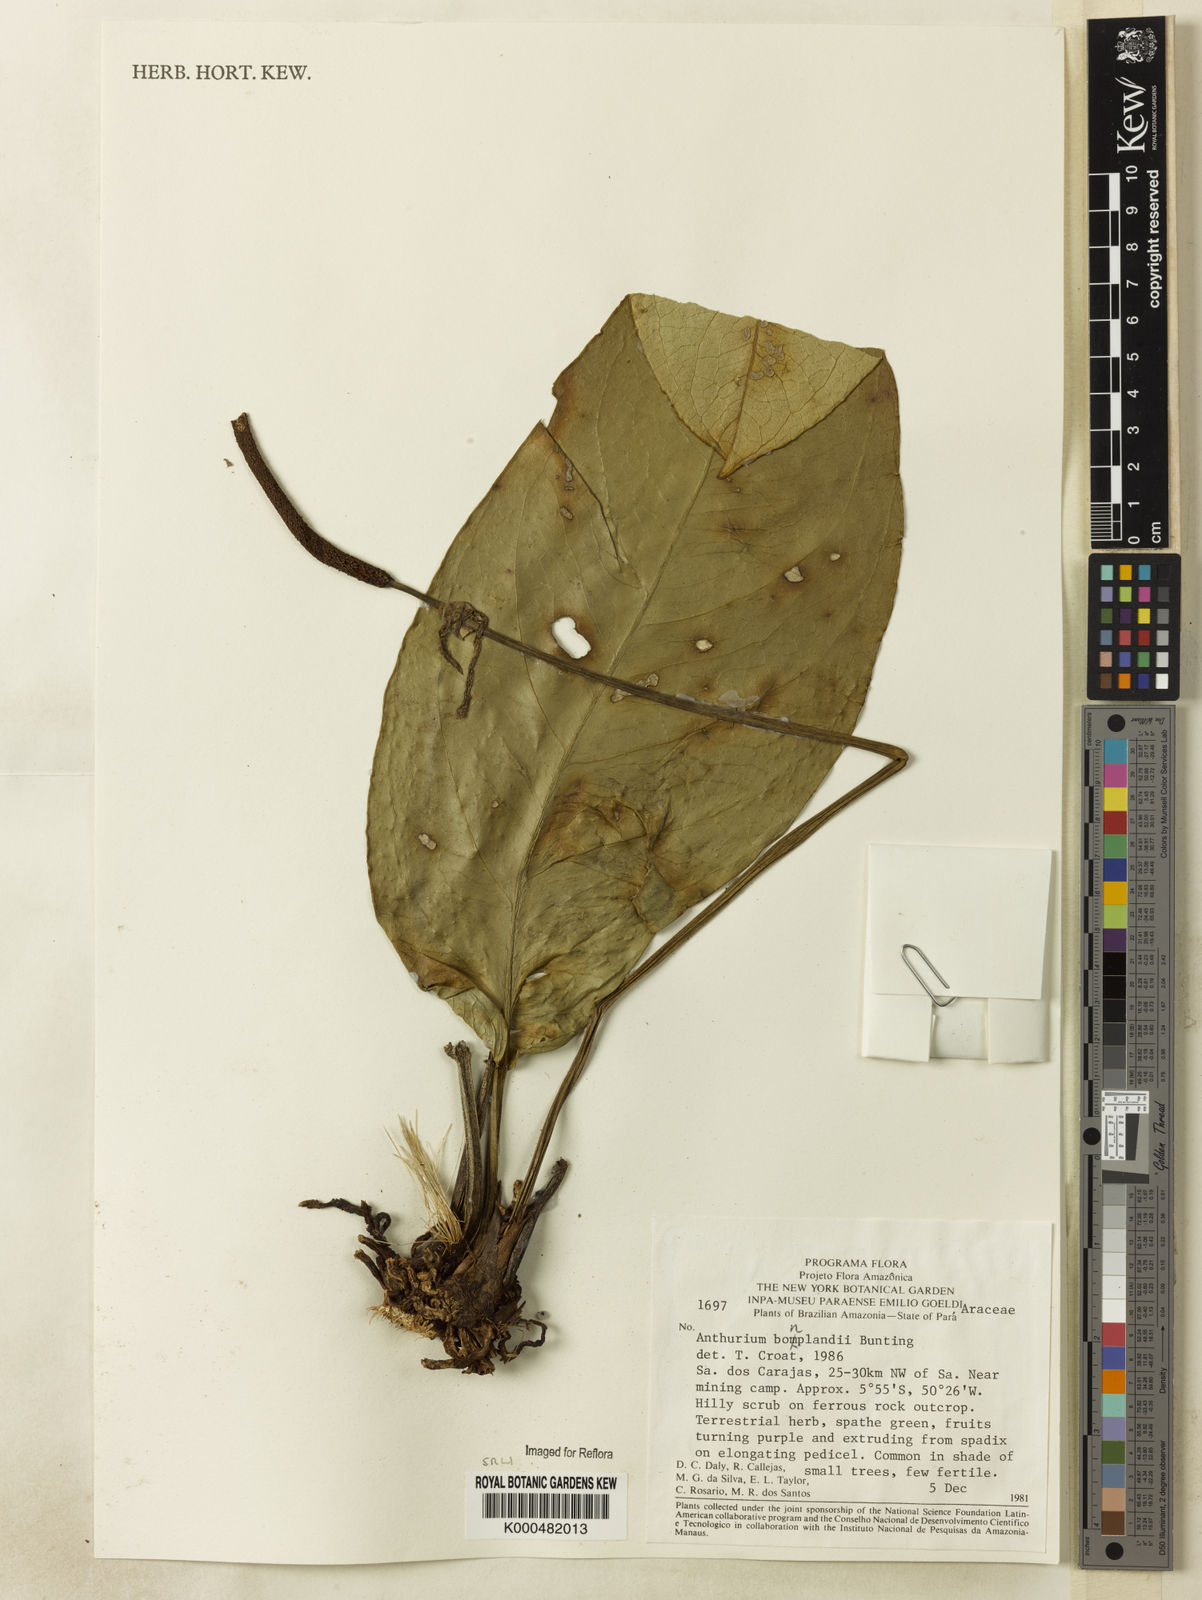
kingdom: Plantae
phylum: Tracheophyta
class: Liliopsida
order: Alismatales
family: Araceae
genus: Anthurium
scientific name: Anthurium bonplandii
